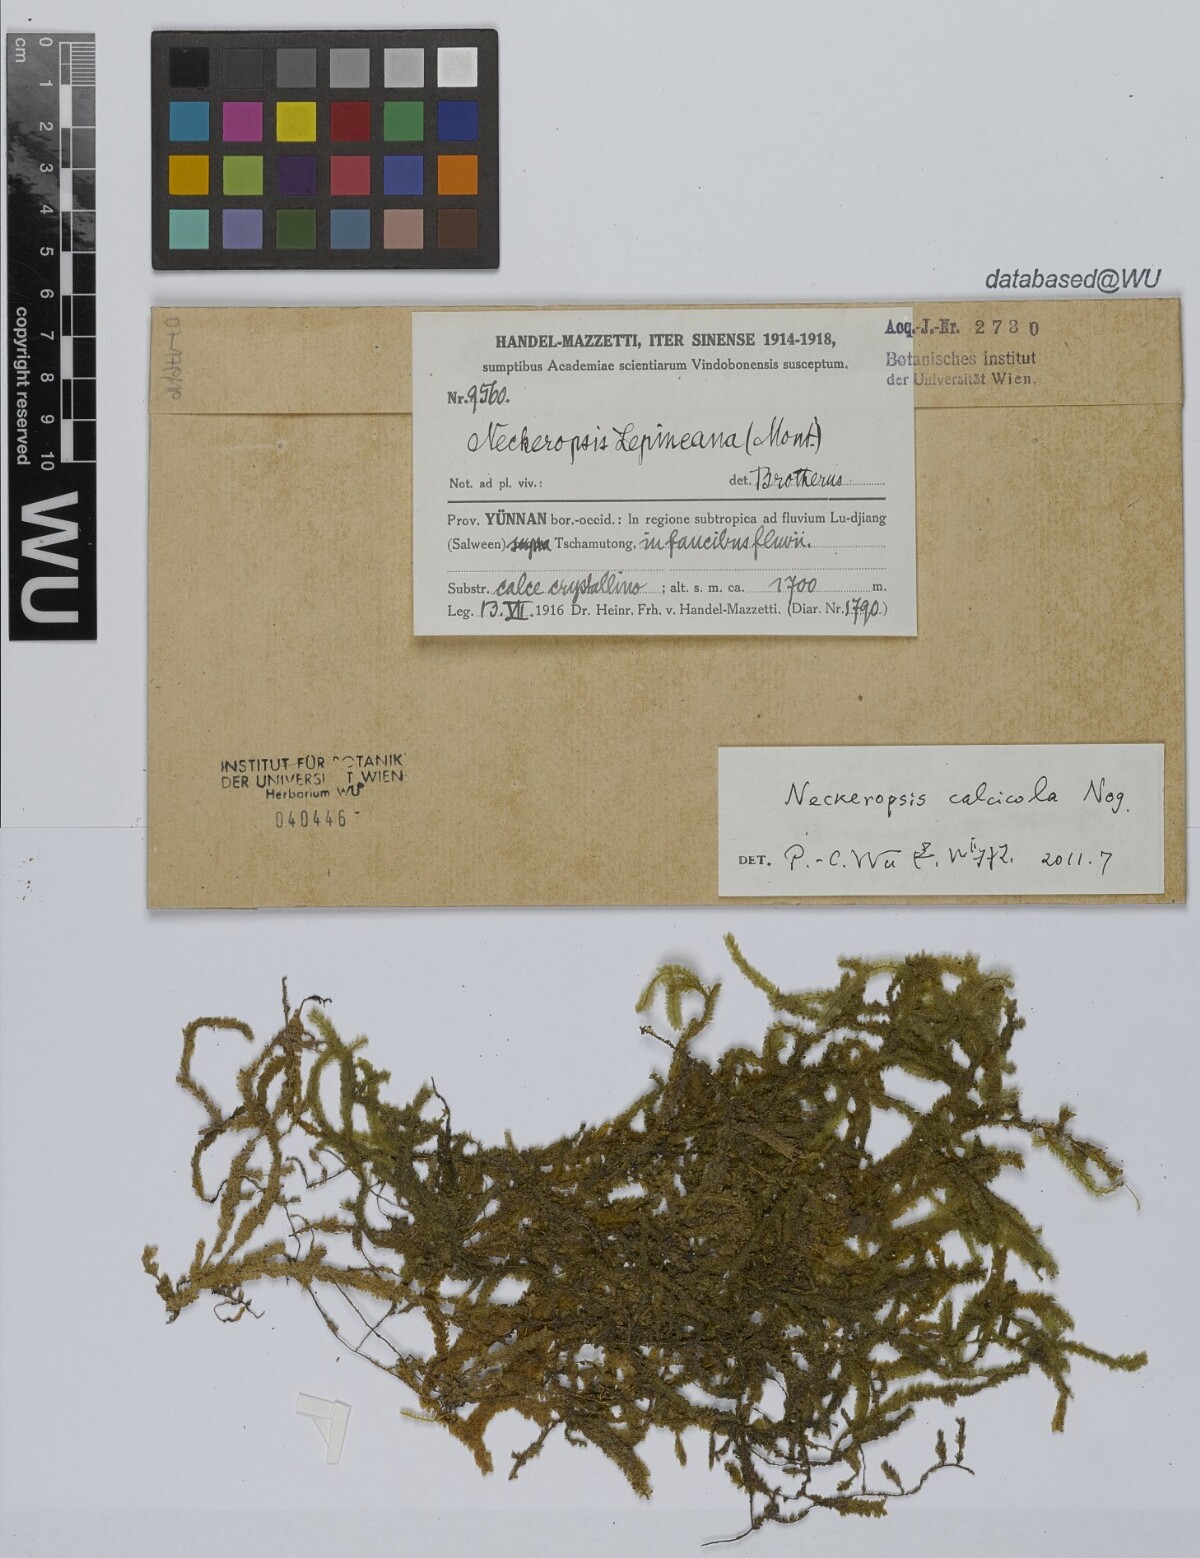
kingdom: Plantae
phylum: Bryophyta
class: Bryopsida
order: Hypnales
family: Neckeraceae
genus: Neckeromnion
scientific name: Neckeromnion calcicola
